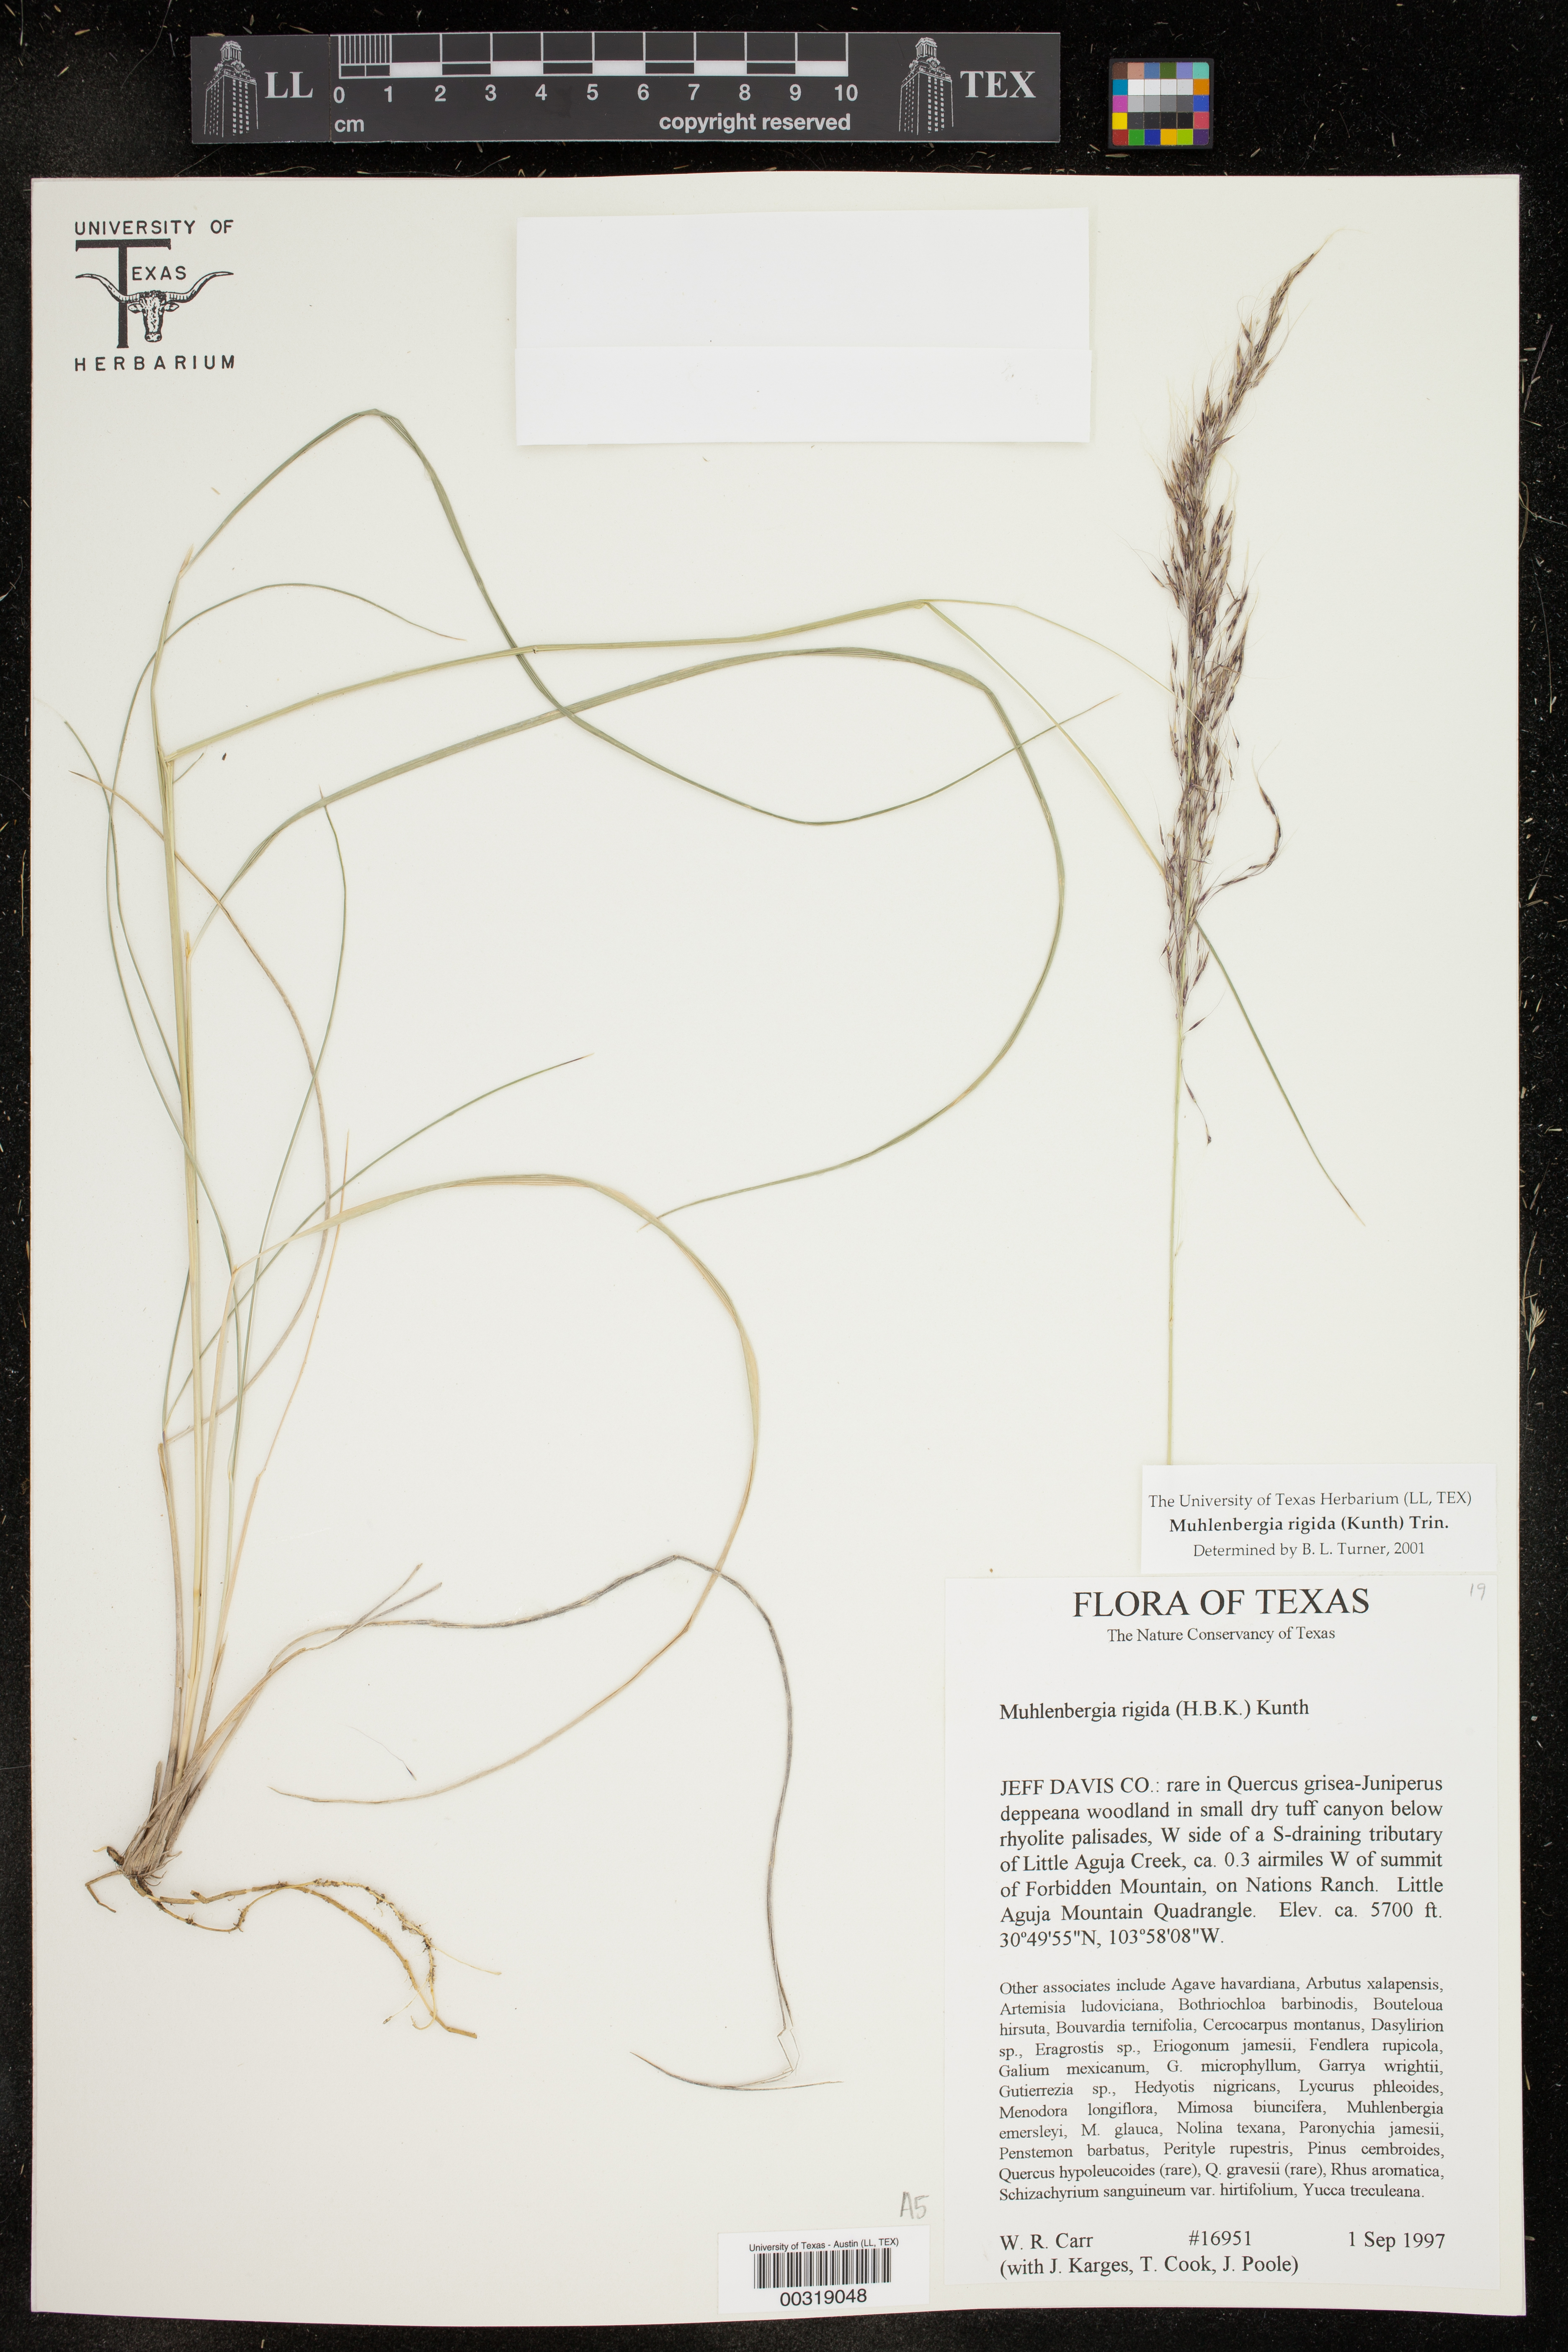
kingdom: Plantae
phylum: Tracheophyta
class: Liliopsida
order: Poales
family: Poaceae
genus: Muhlenbergia
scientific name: Muhlenbergia rigida
